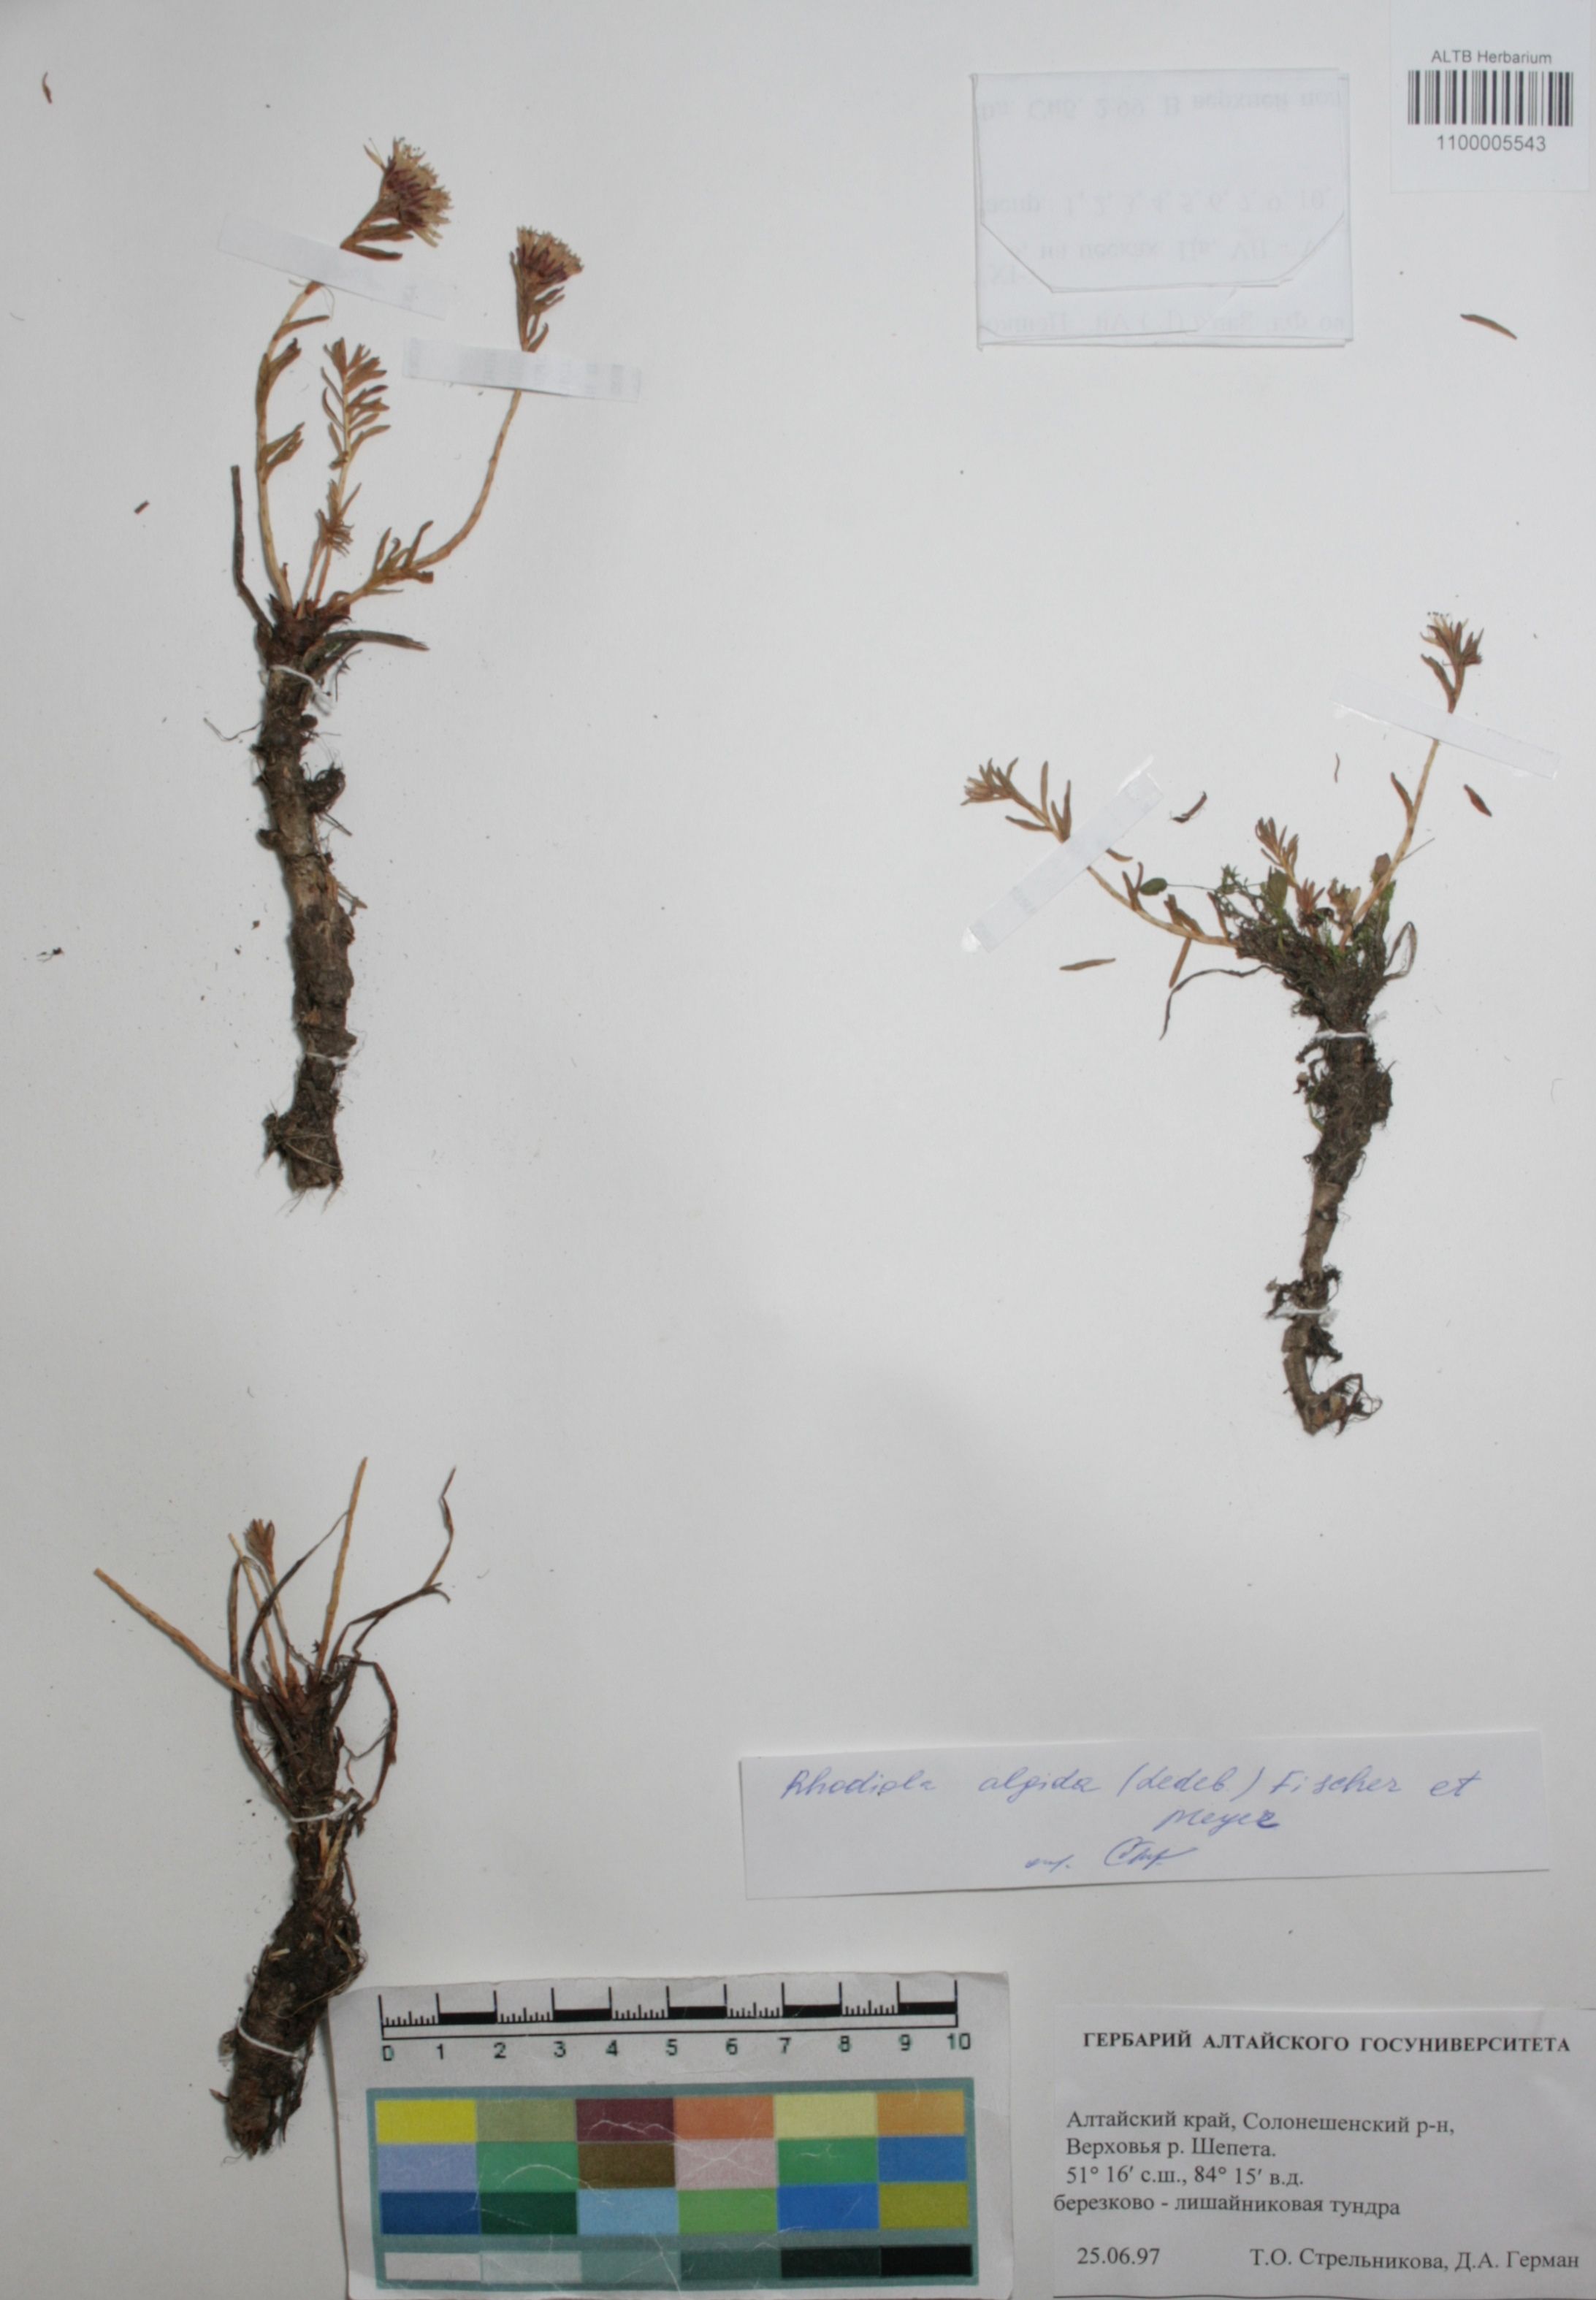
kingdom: Plantae
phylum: Tracheophyta
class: Magnoliopsida
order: Saxifragales
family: Crassulaceae
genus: Rhodiola
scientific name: Rhodiola algida
